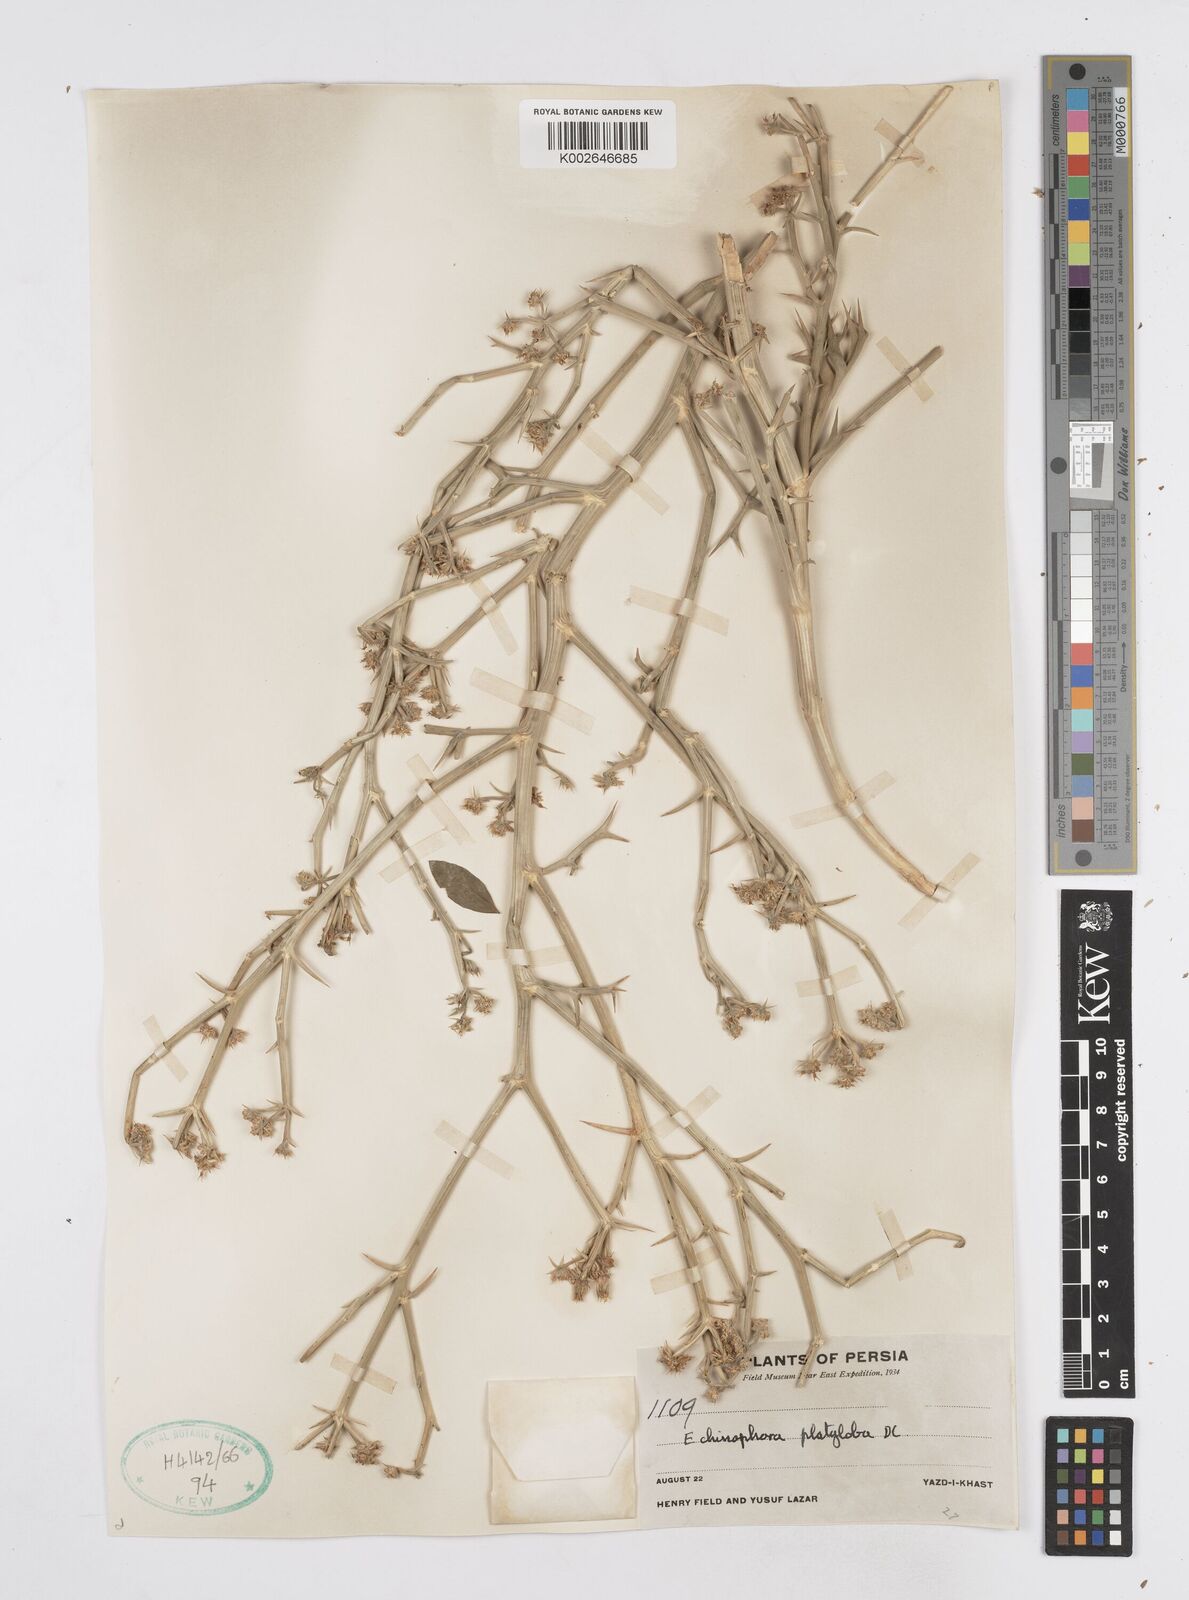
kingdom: Plantae
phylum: Tracheophyta
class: Magnoliopsida
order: Apiales
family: Apiaceae
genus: Echinophora
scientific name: Echinophora platyloba
